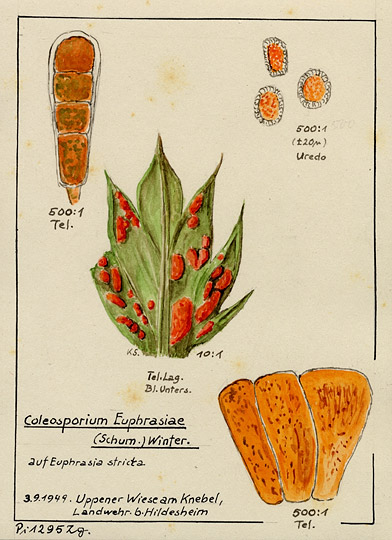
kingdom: Fungi
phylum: Basidiomycota
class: Pucciniomycetes
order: Pucciniales
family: Coleosporiaceae
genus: Coleosporium
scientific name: Coleosporium euphrasiae
